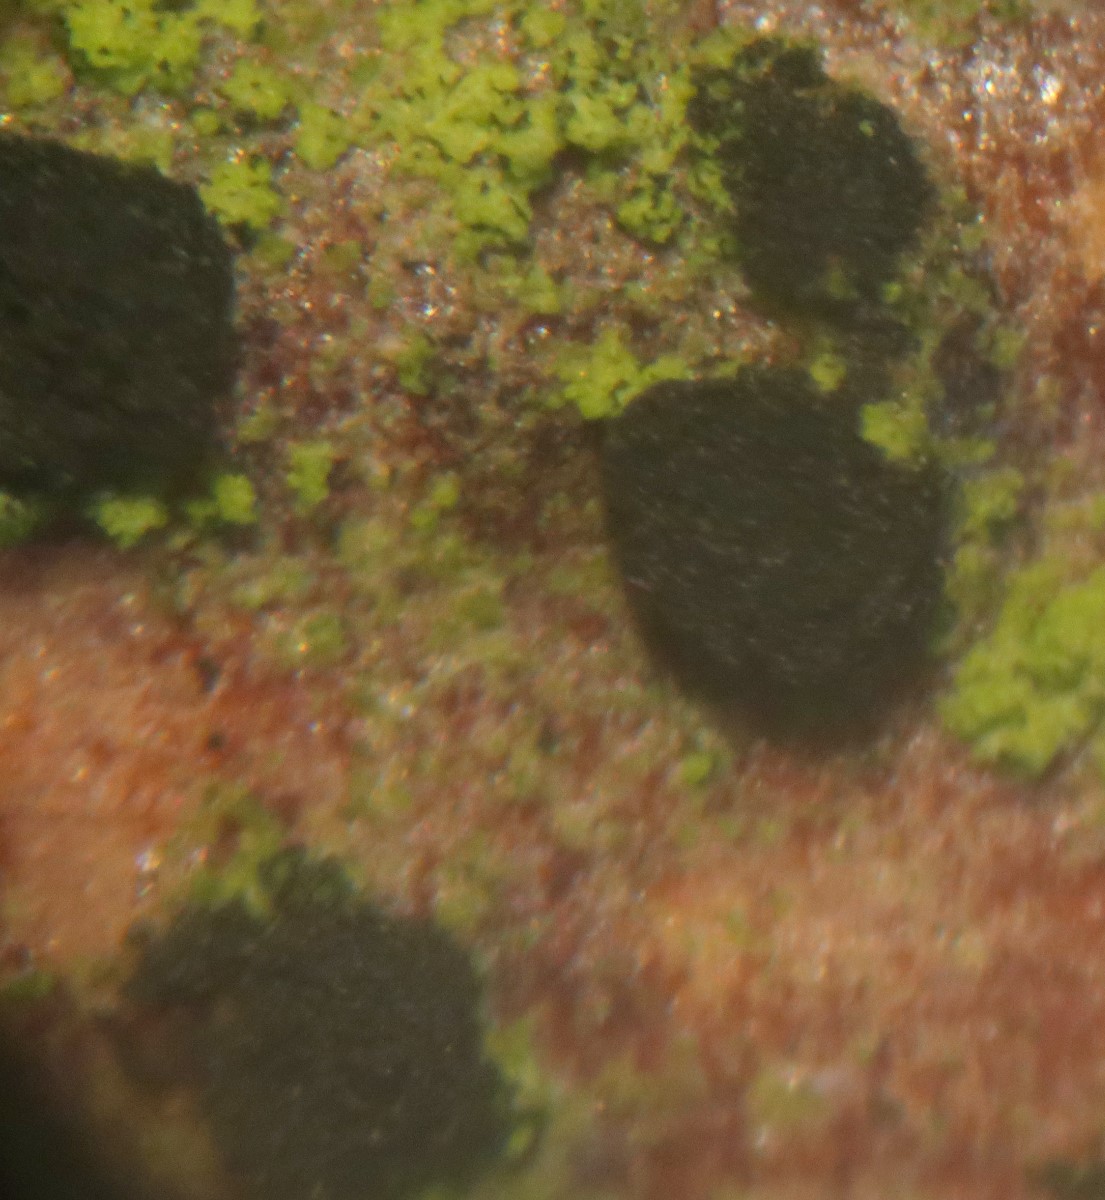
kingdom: Fungi
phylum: Ascomycota
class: Leotiomycetes
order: Helotiales
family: Mollisiaceae
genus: Trimmatostroma
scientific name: Trimmatostroma salicis
